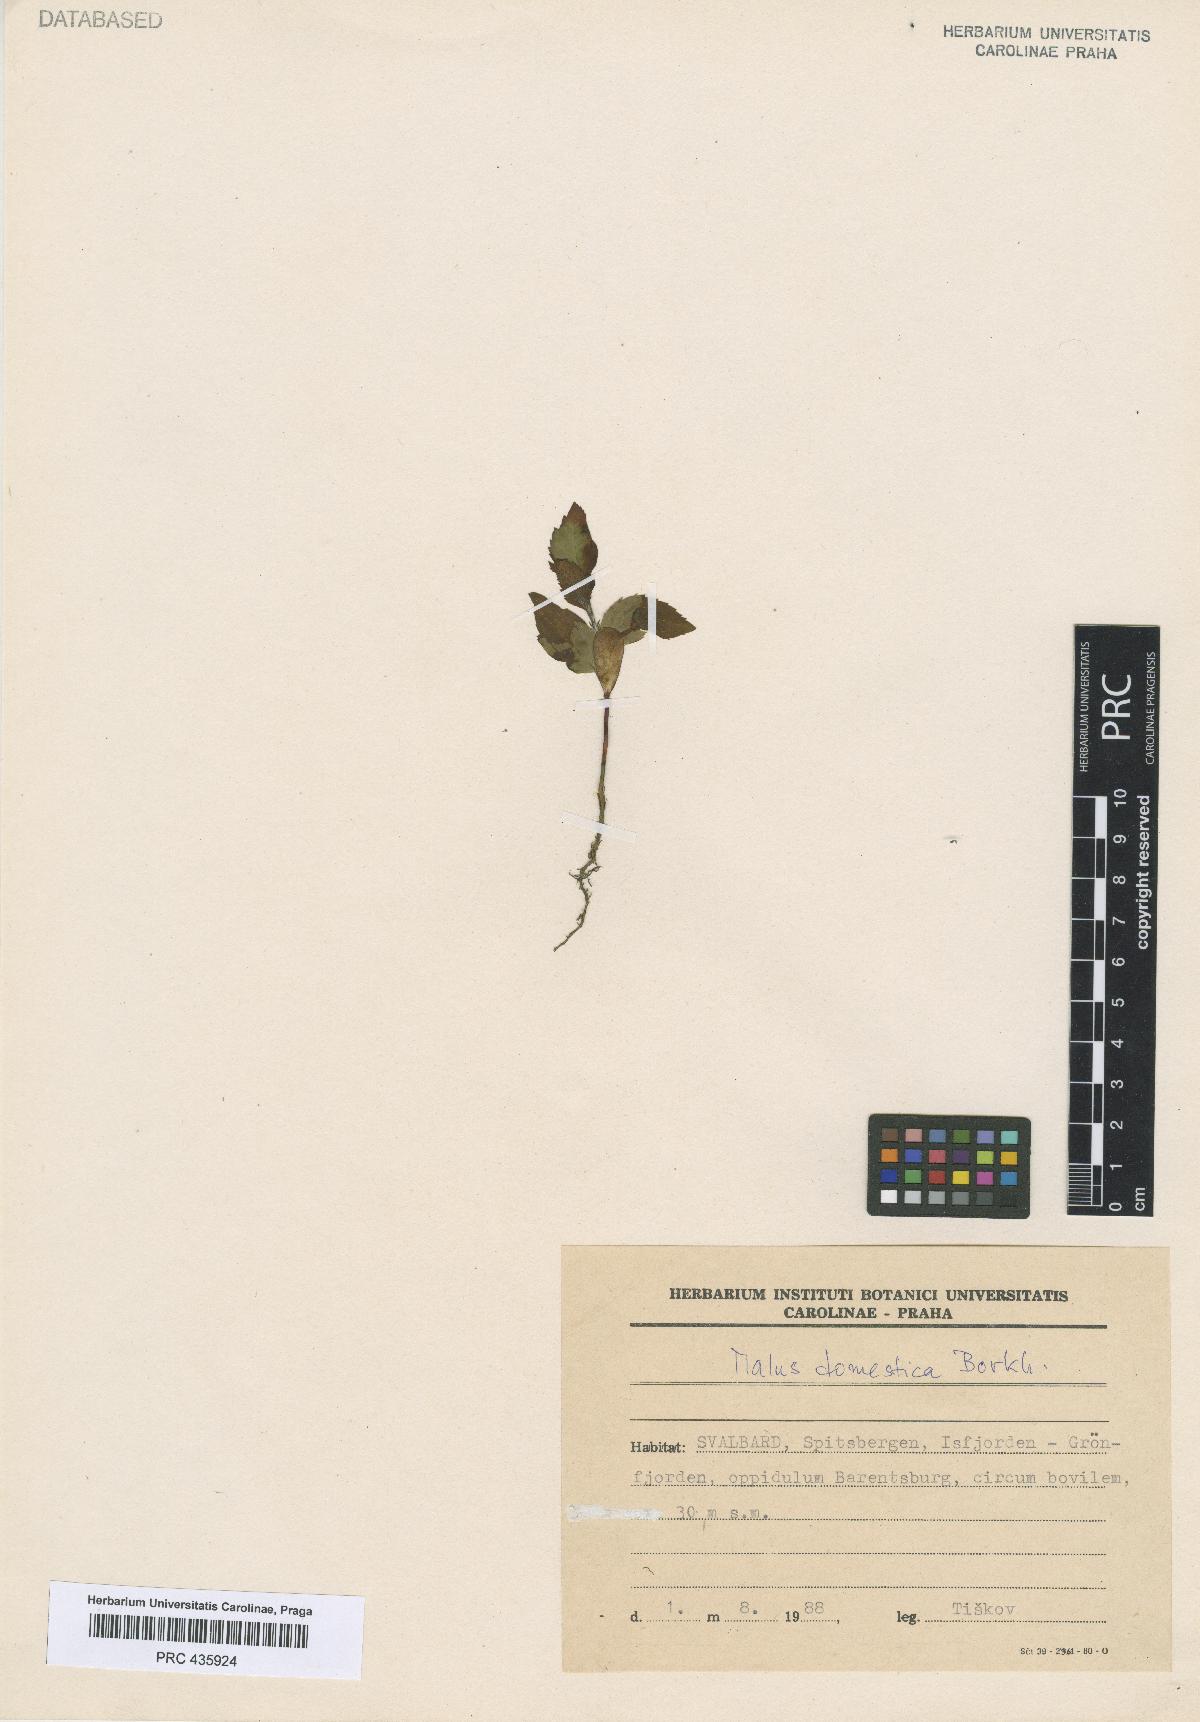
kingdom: Plantae
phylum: Tracheophyta
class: Magnoliopsida
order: Rosales
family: Rosaceae
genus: Malus
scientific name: Malus domestica
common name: Apple
